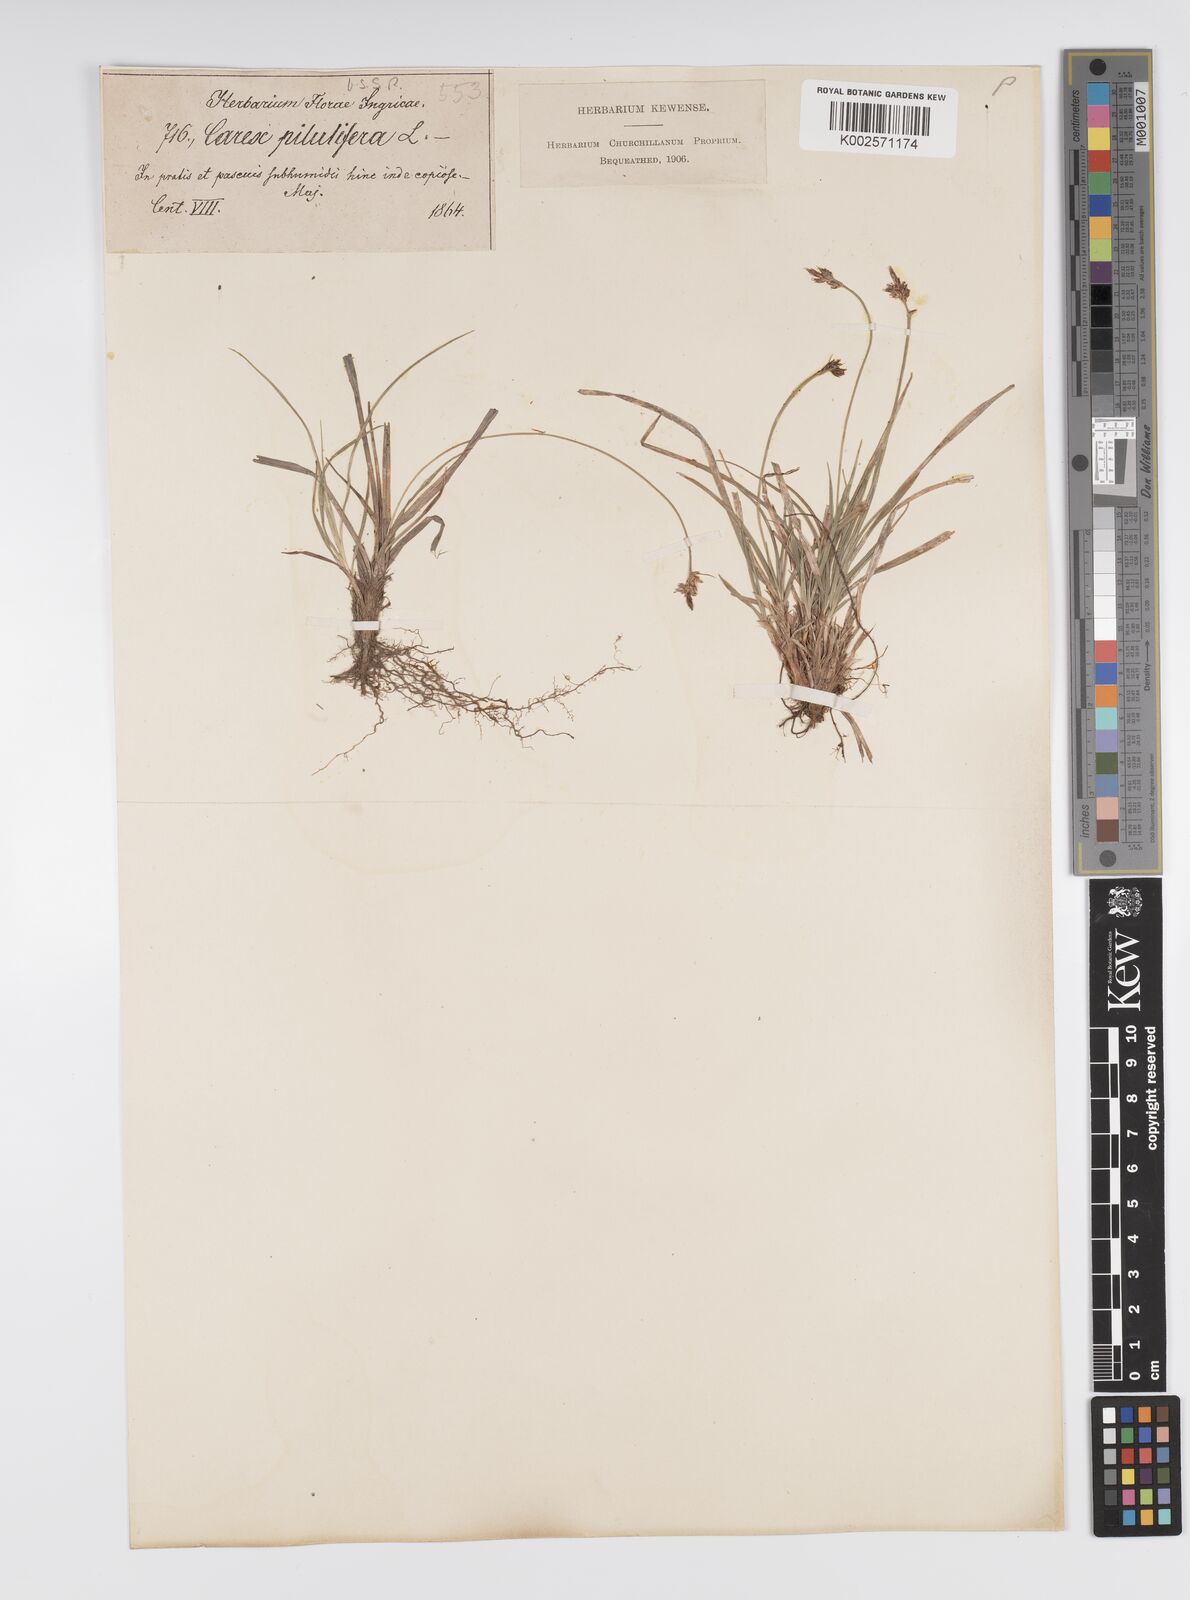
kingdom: Plantae
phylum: Tracheophyta
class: Liliopsida
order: Poales
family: Cyperaceae
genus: Carex
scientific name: Carex pilulifera
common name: Pill sedge
